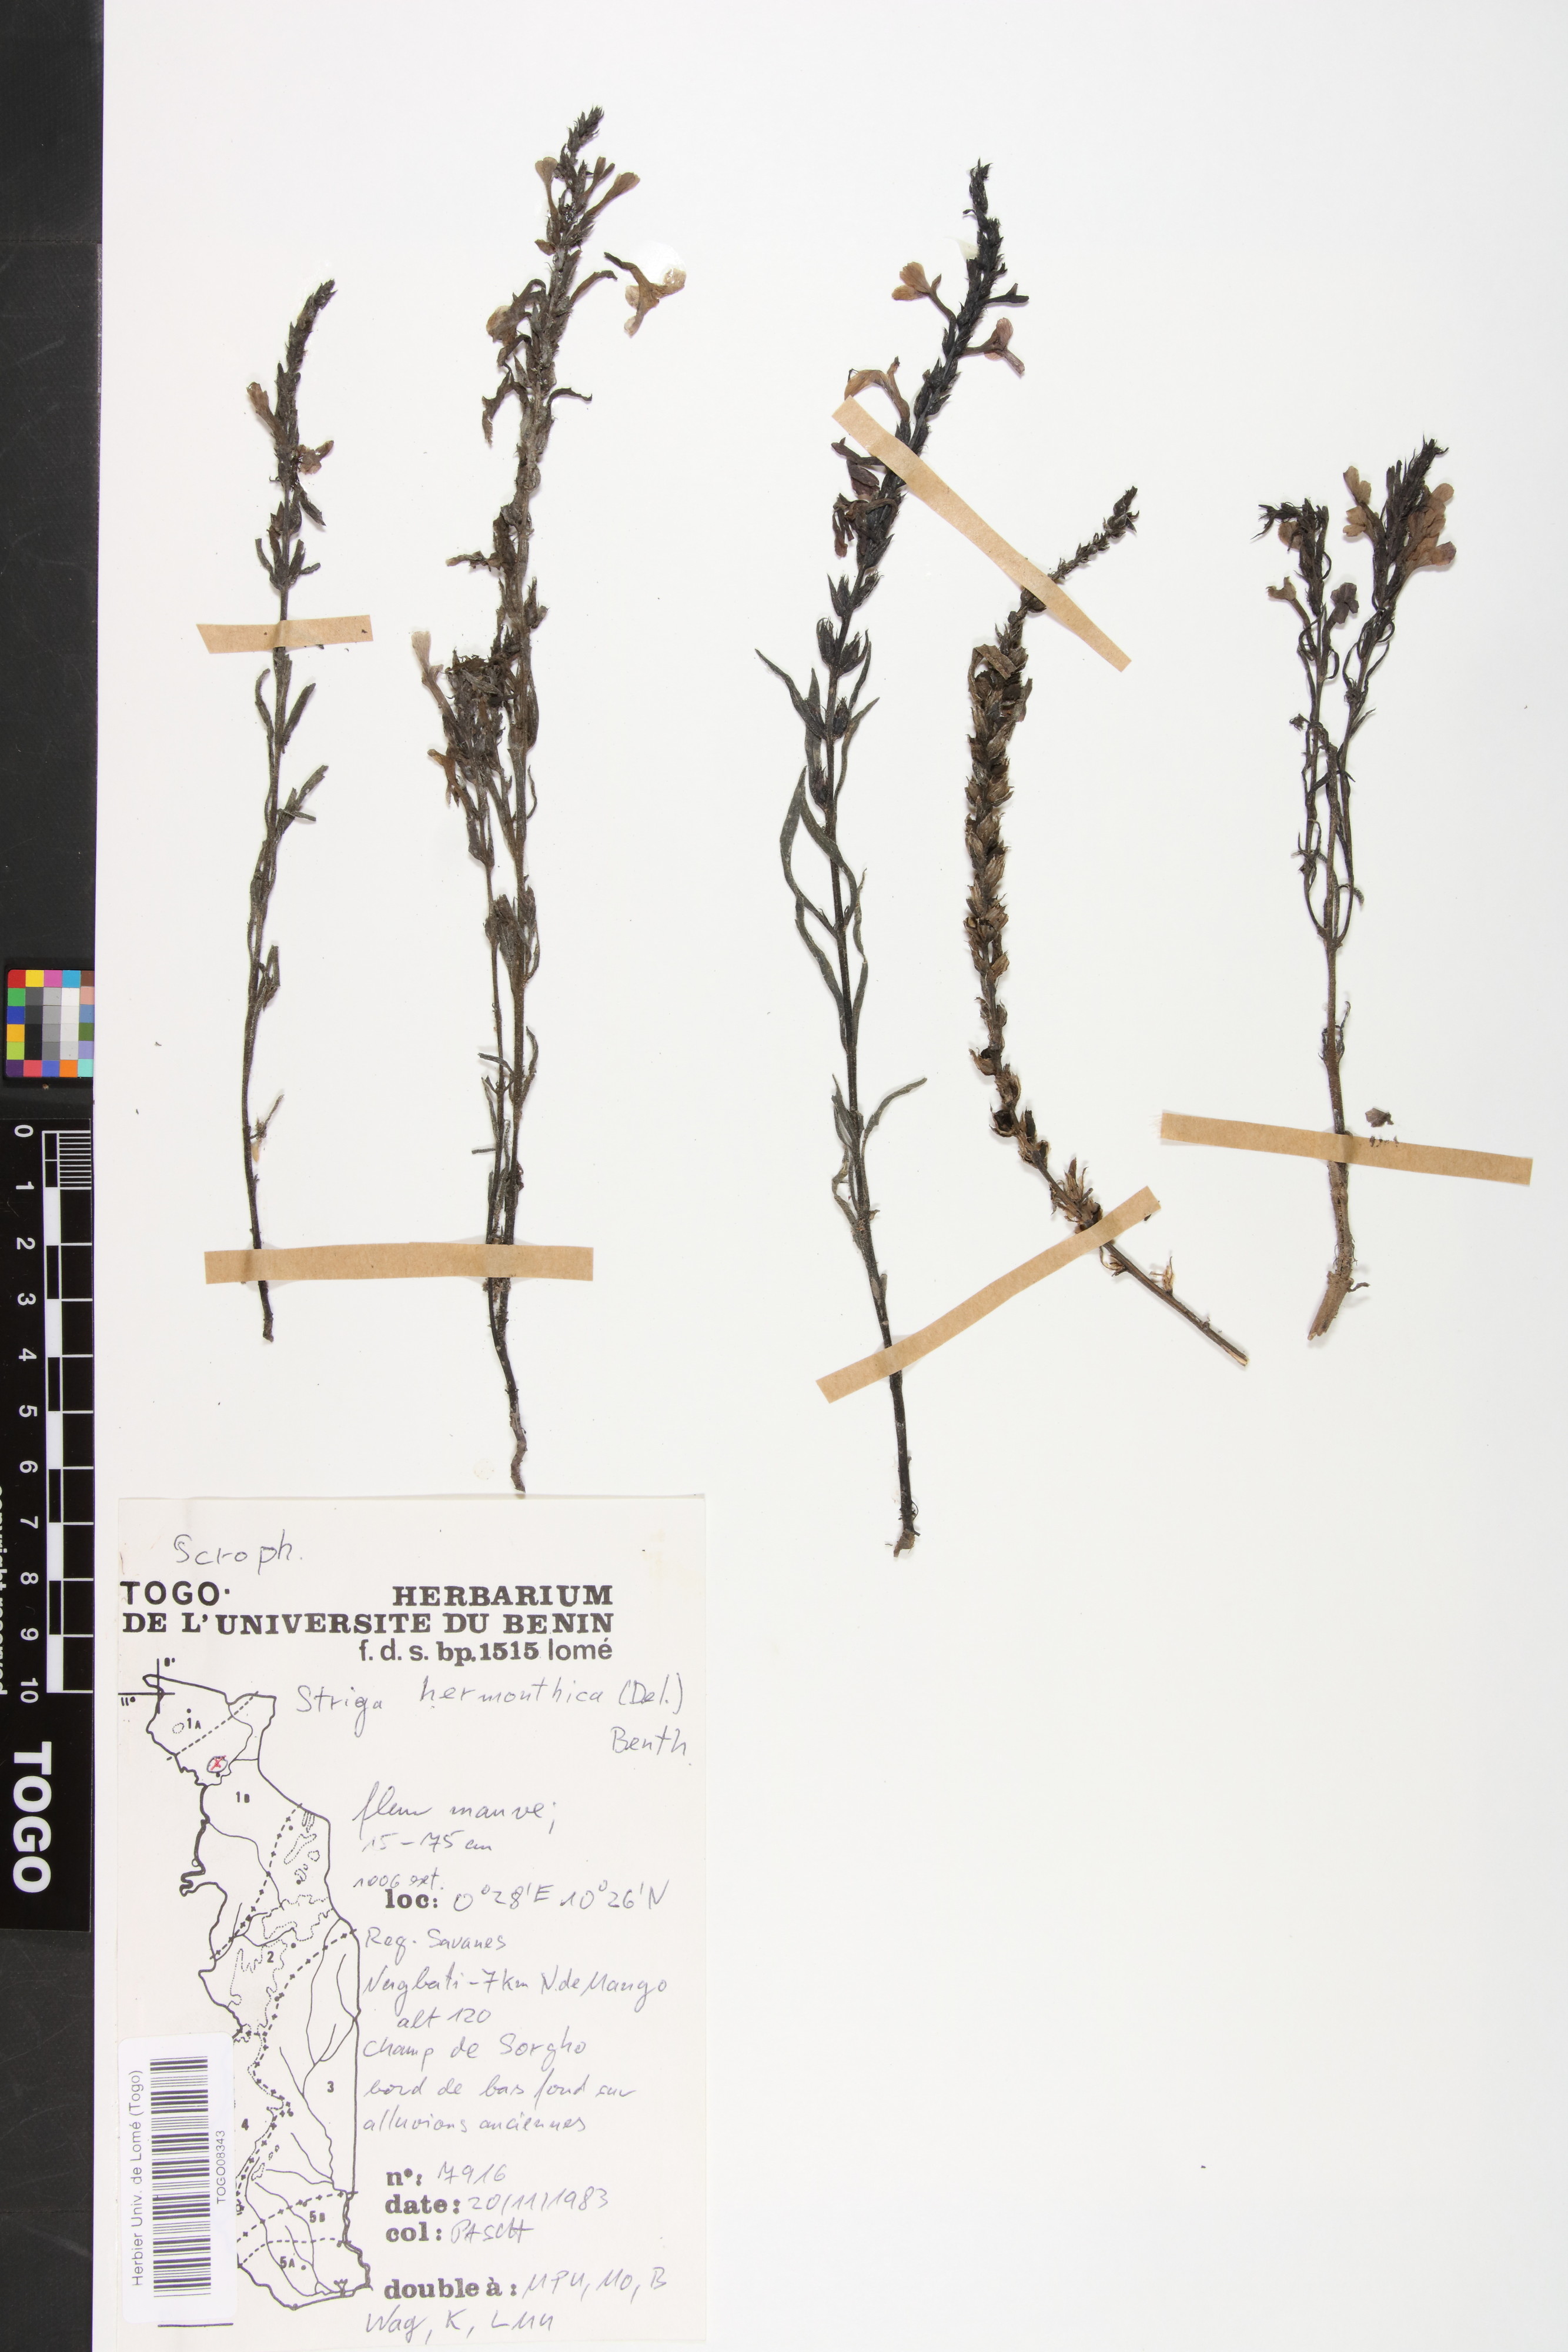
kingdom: Plantae
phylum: Tracheophyta
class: Magnoliopsida
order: Lamiales
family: Orobanchaceae
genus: Striga
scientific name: Striga hermonthica
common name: Purple witchweed
